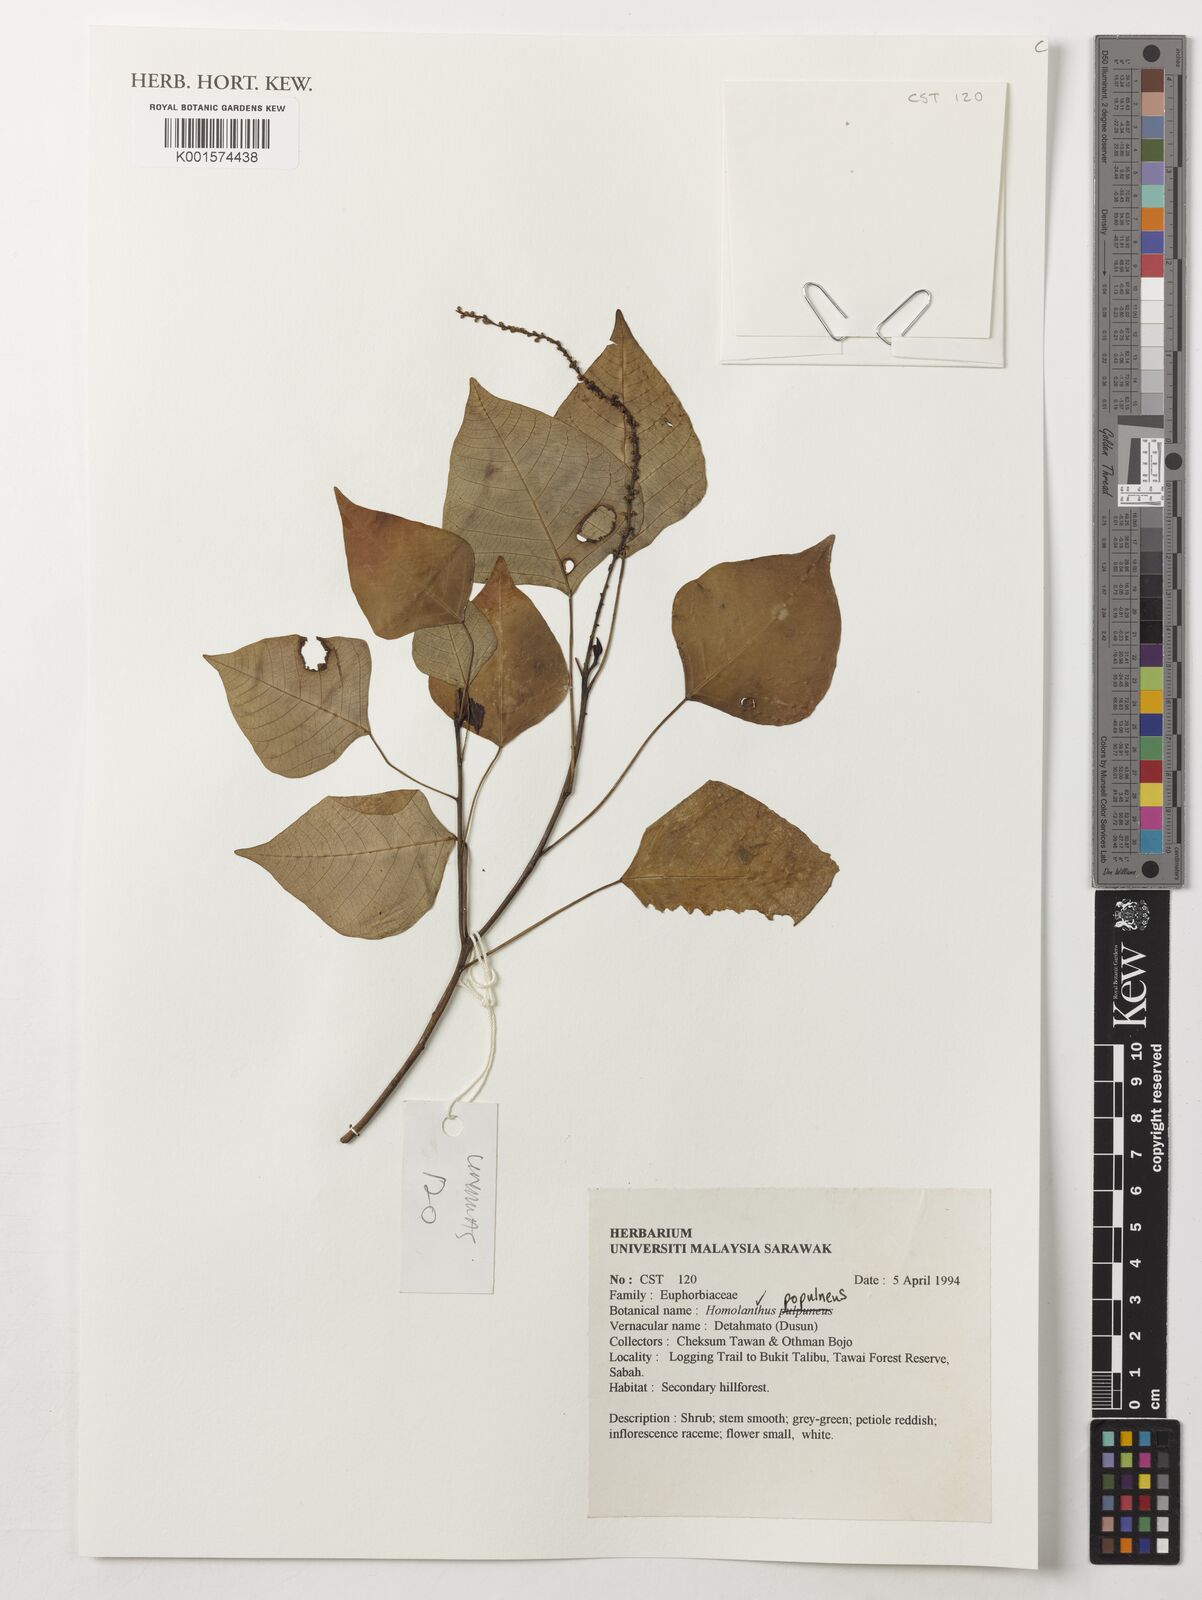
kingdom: Plantae
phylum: Tracheophyta
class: Magnoliopsida
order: Malpighiales
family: Euphorbiaceae
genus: Homalanthus
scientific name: Homalanthus populneus
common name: Spurge
